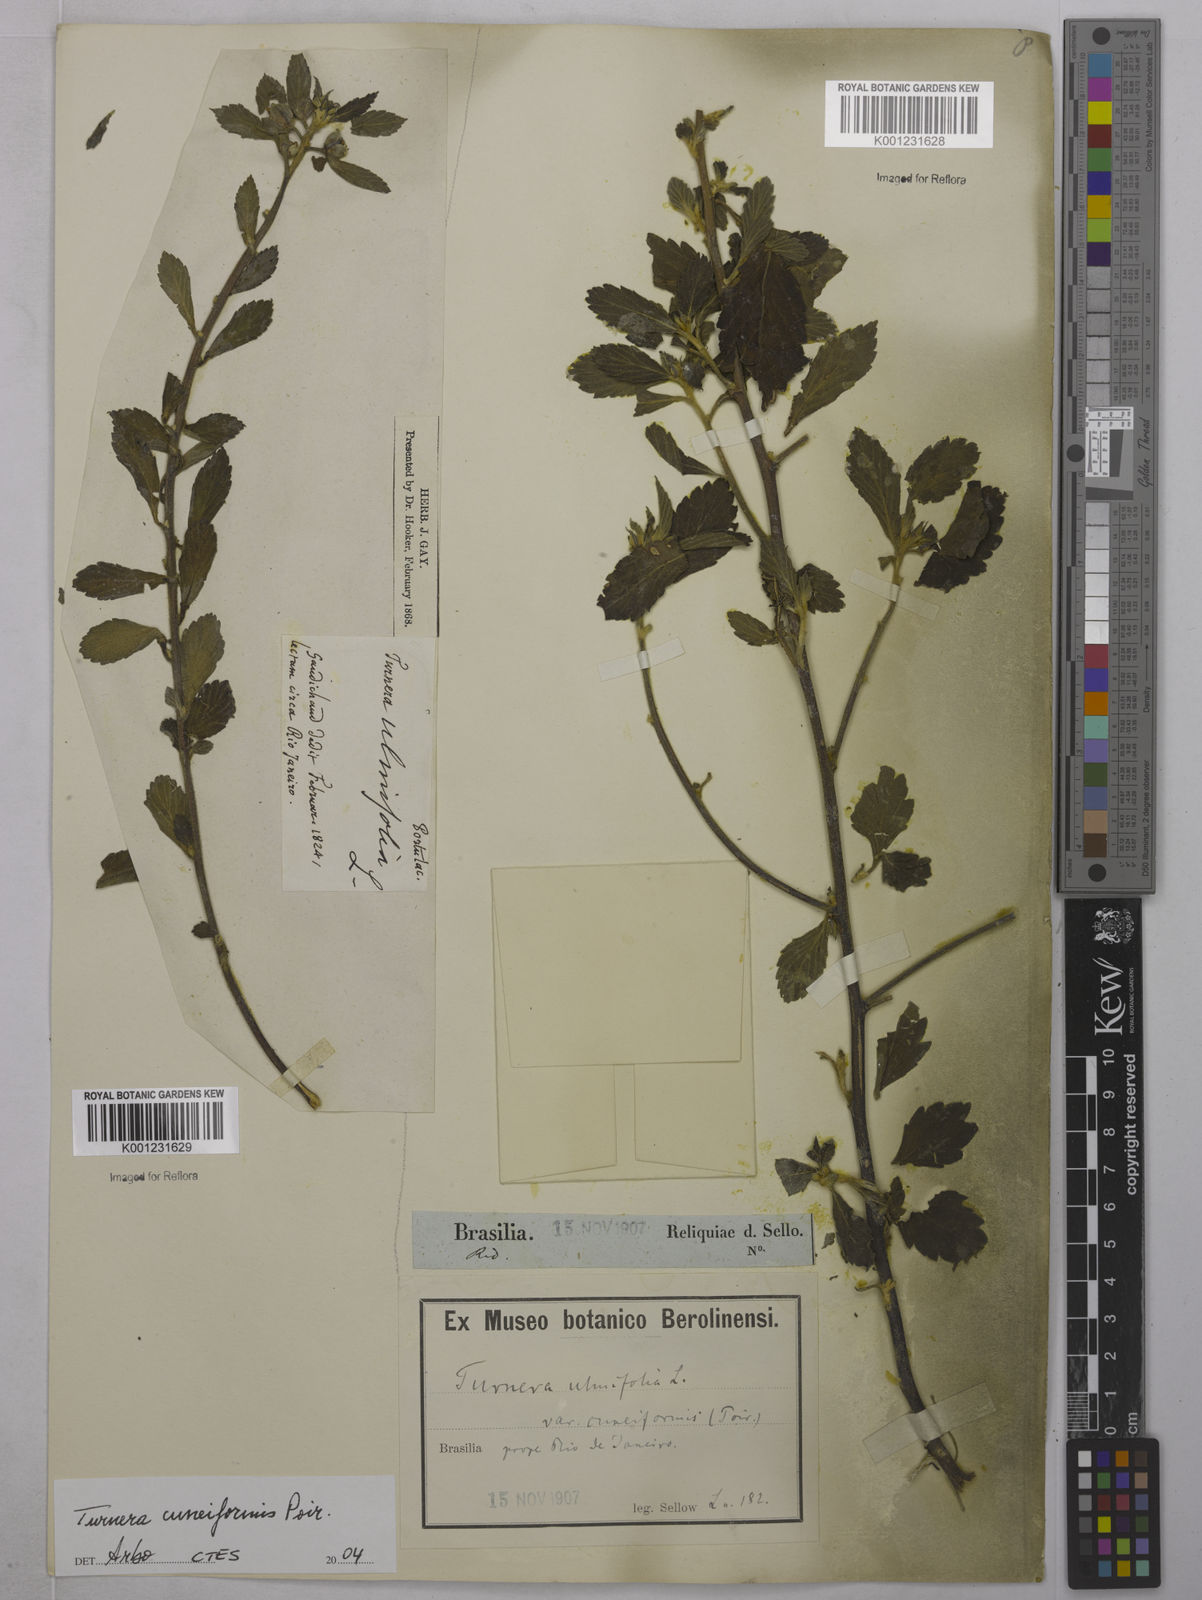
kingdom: Plantae
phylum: Tracheophyta
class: Magnoliopsida
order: Malpighiales
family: Turneraceae
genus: Turnera
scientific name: Turnera cuneiformis
